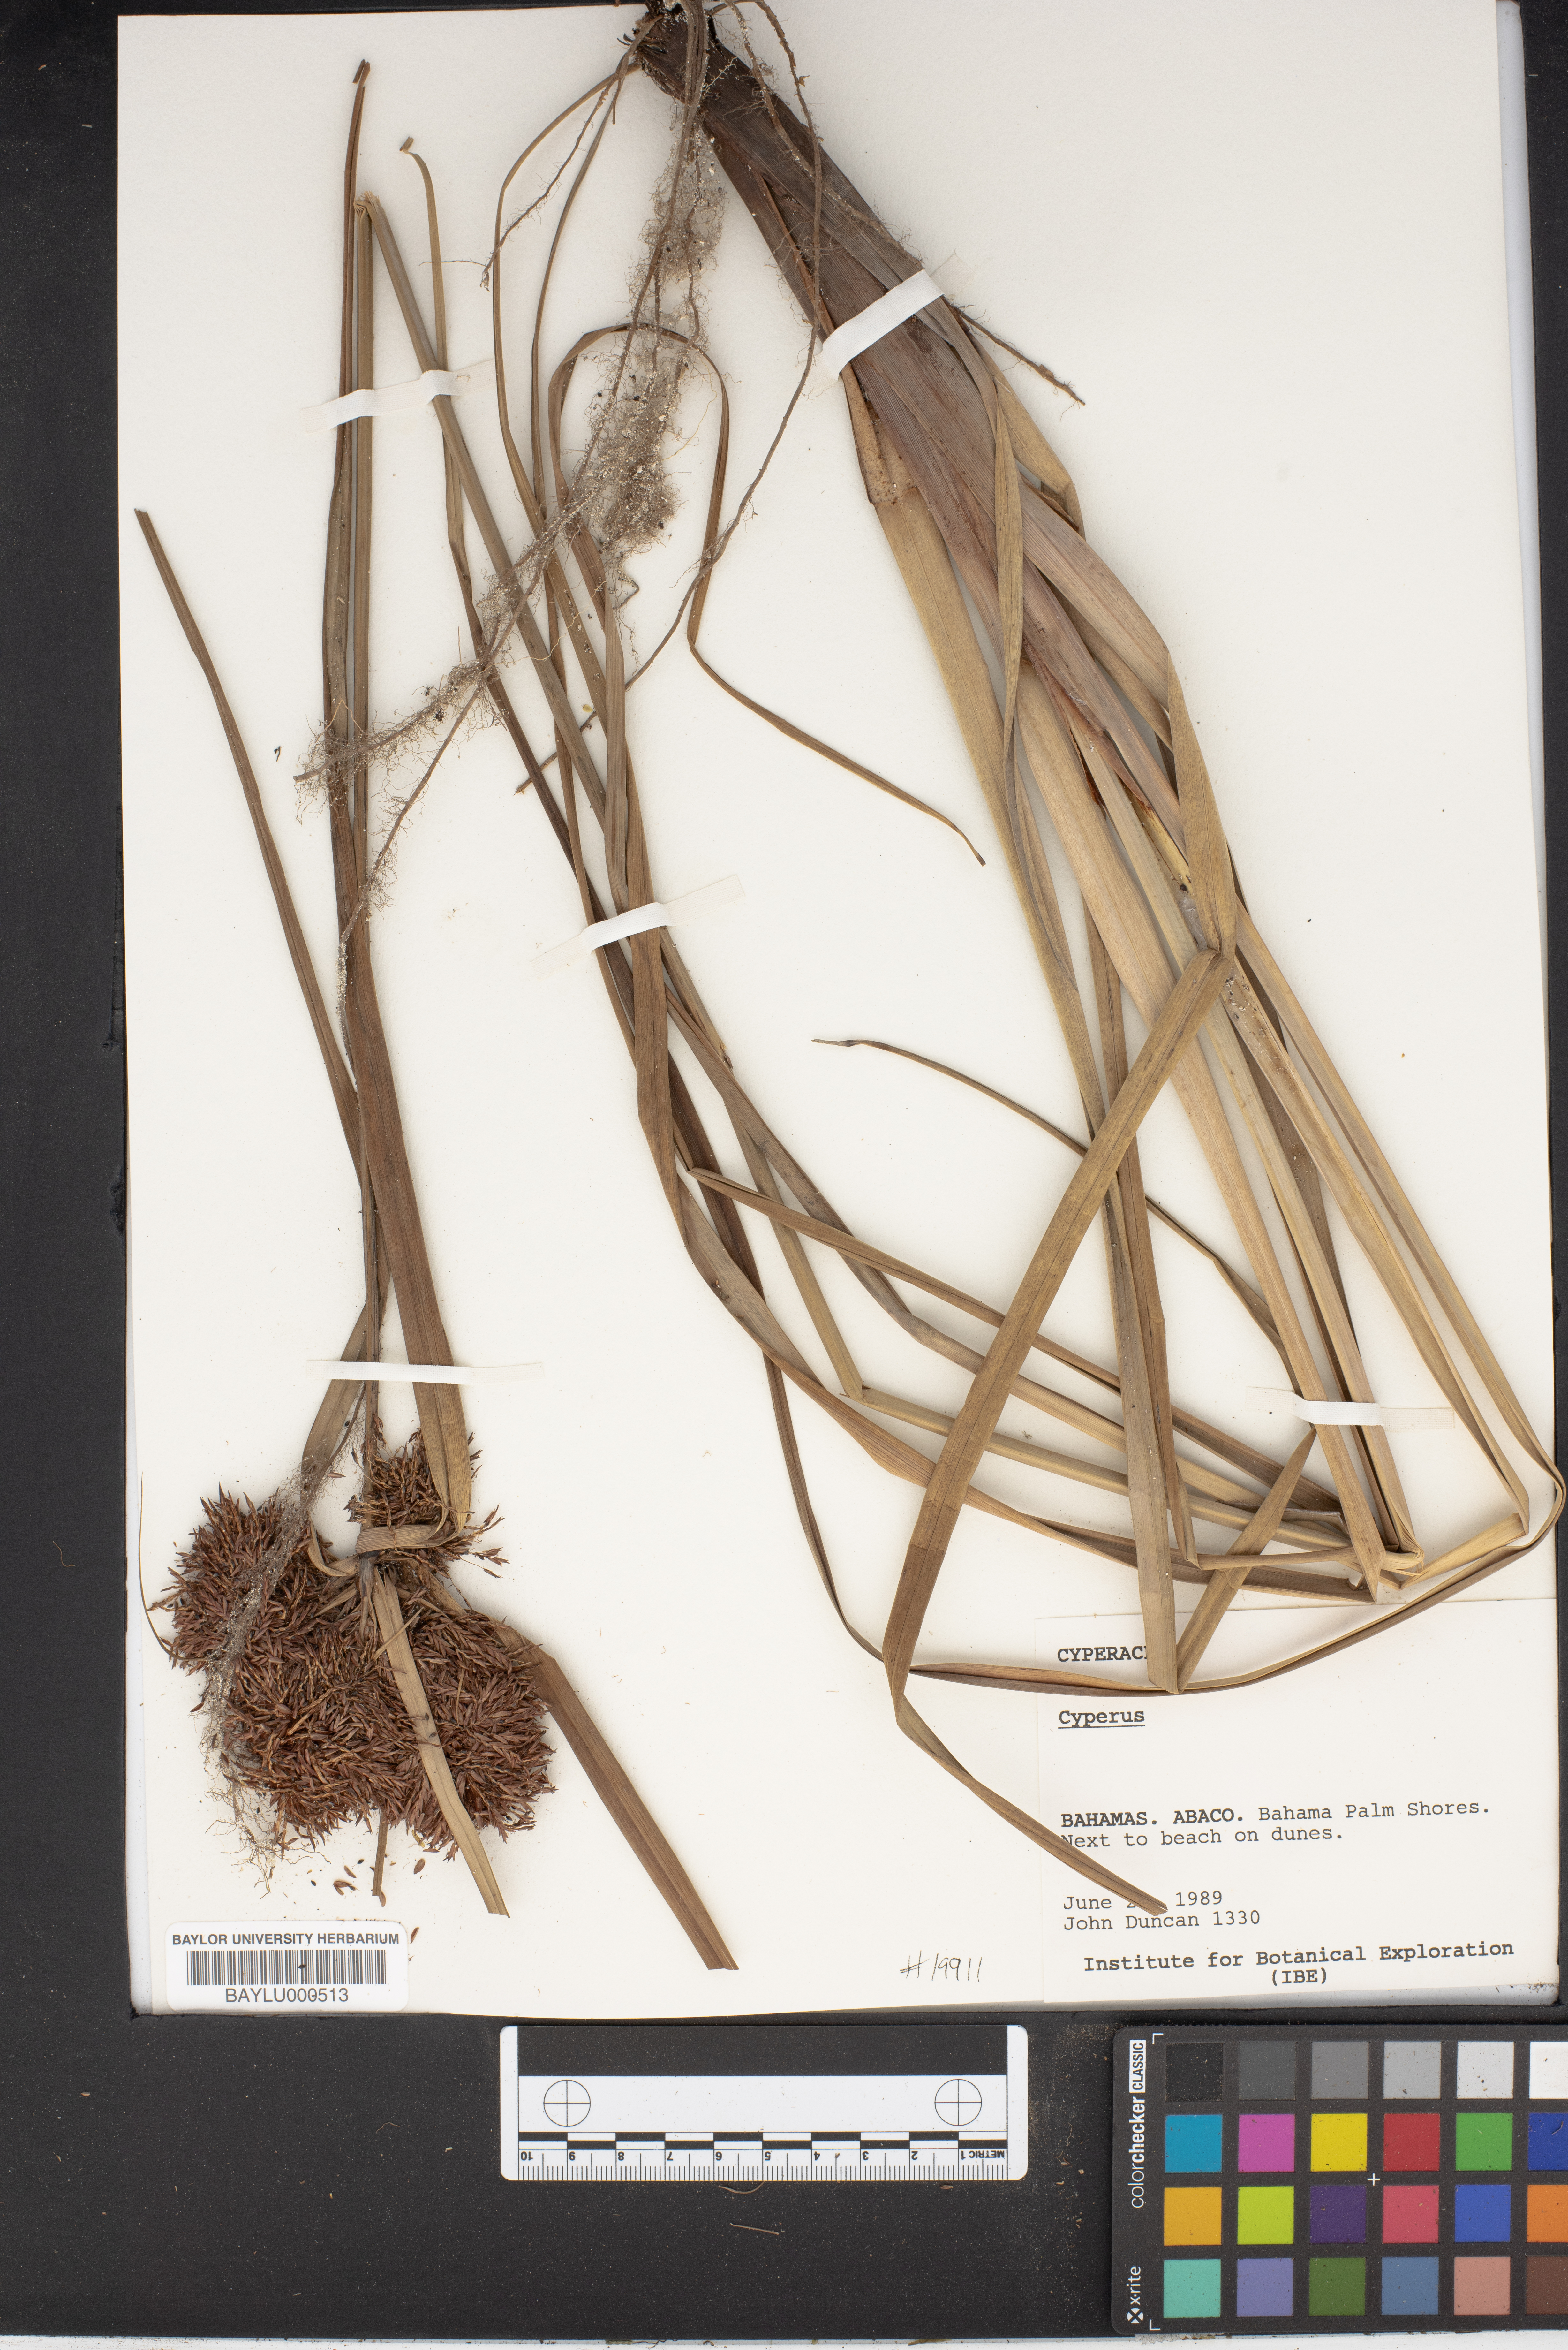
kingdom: Plantae
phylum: Tracheophyta
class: Liliopsida
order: Poales
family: Cyperaceae
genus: Cyperus
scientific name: Cyperus
